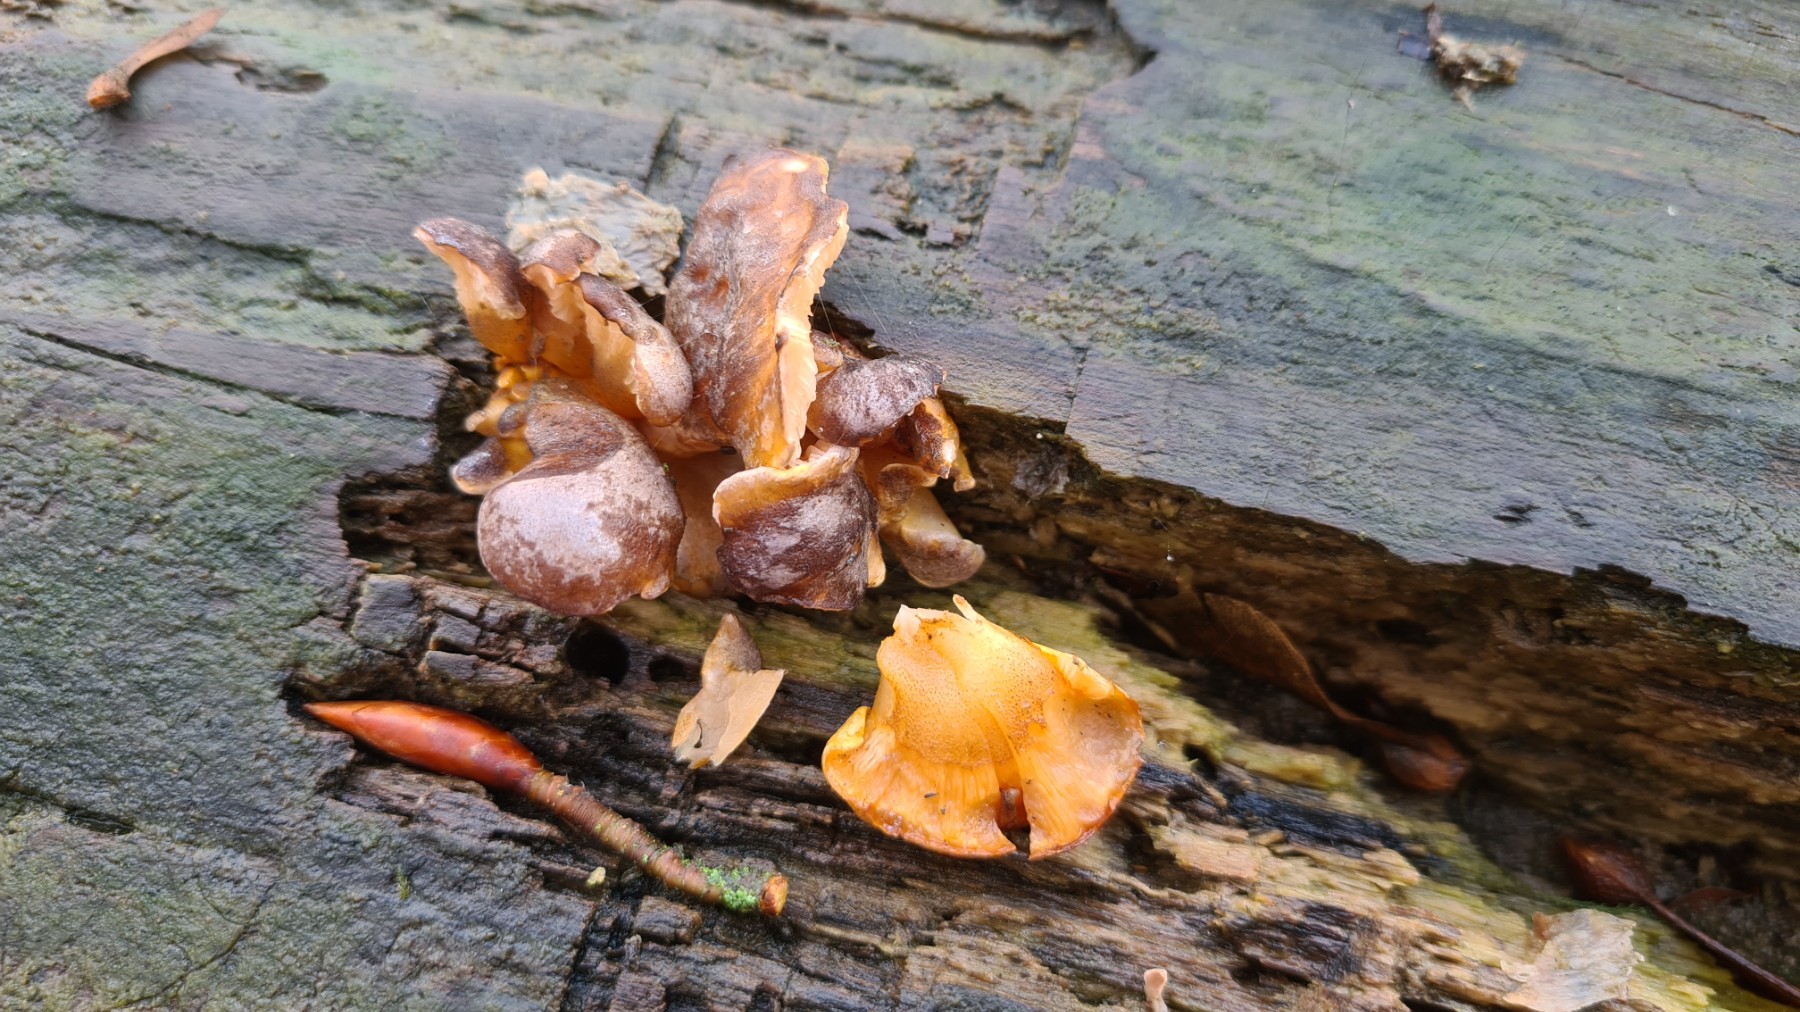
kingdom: Fungi
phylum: Basidiomycota
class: Agaricomycetes
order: Agaricales
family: Sarcomyxaceae
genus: Sarcomyxa
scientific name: Sarcomyxa serotina
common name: gummihat
